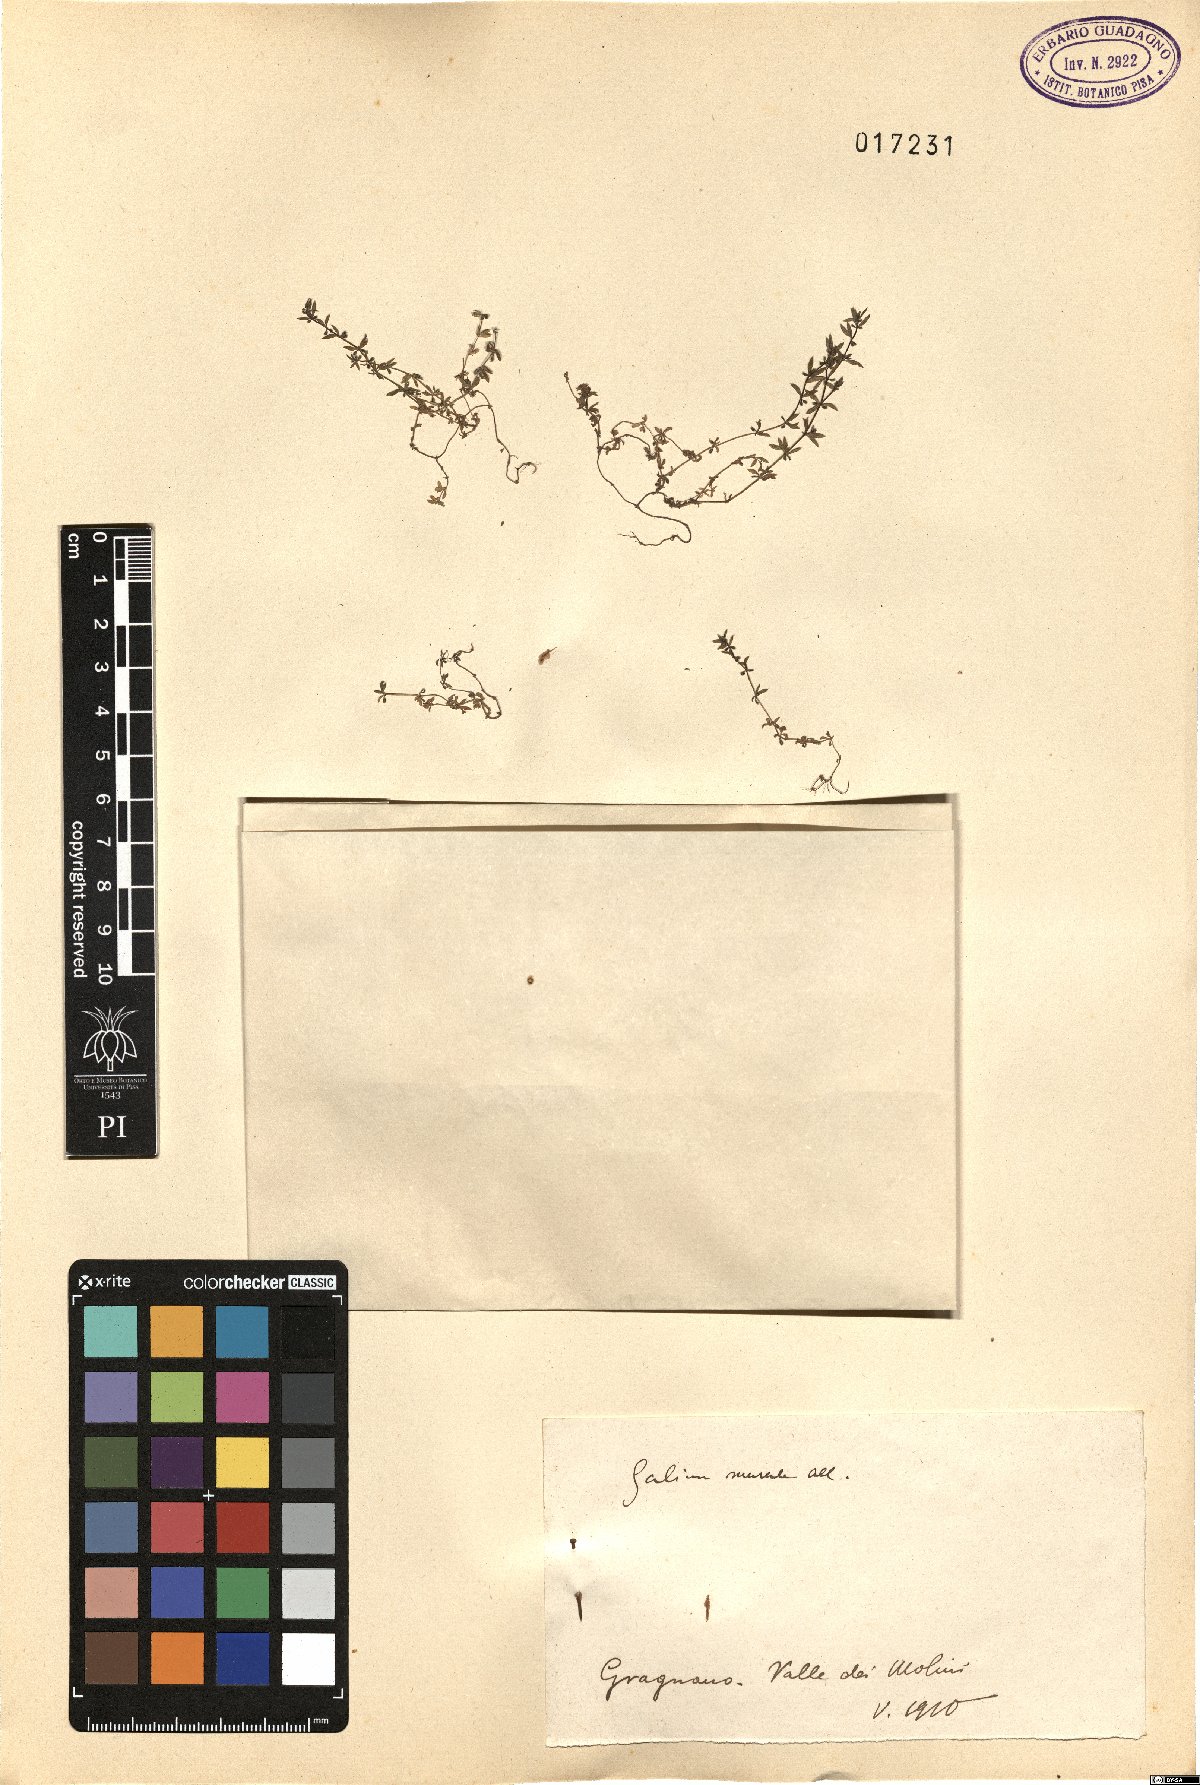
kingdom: Plantae
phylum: Tracheophyta
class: Magnoliopsida
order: Gentianales
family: Rubiaceae
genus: Galium
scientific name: Galium murale
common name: Yellow wall bedstraw
